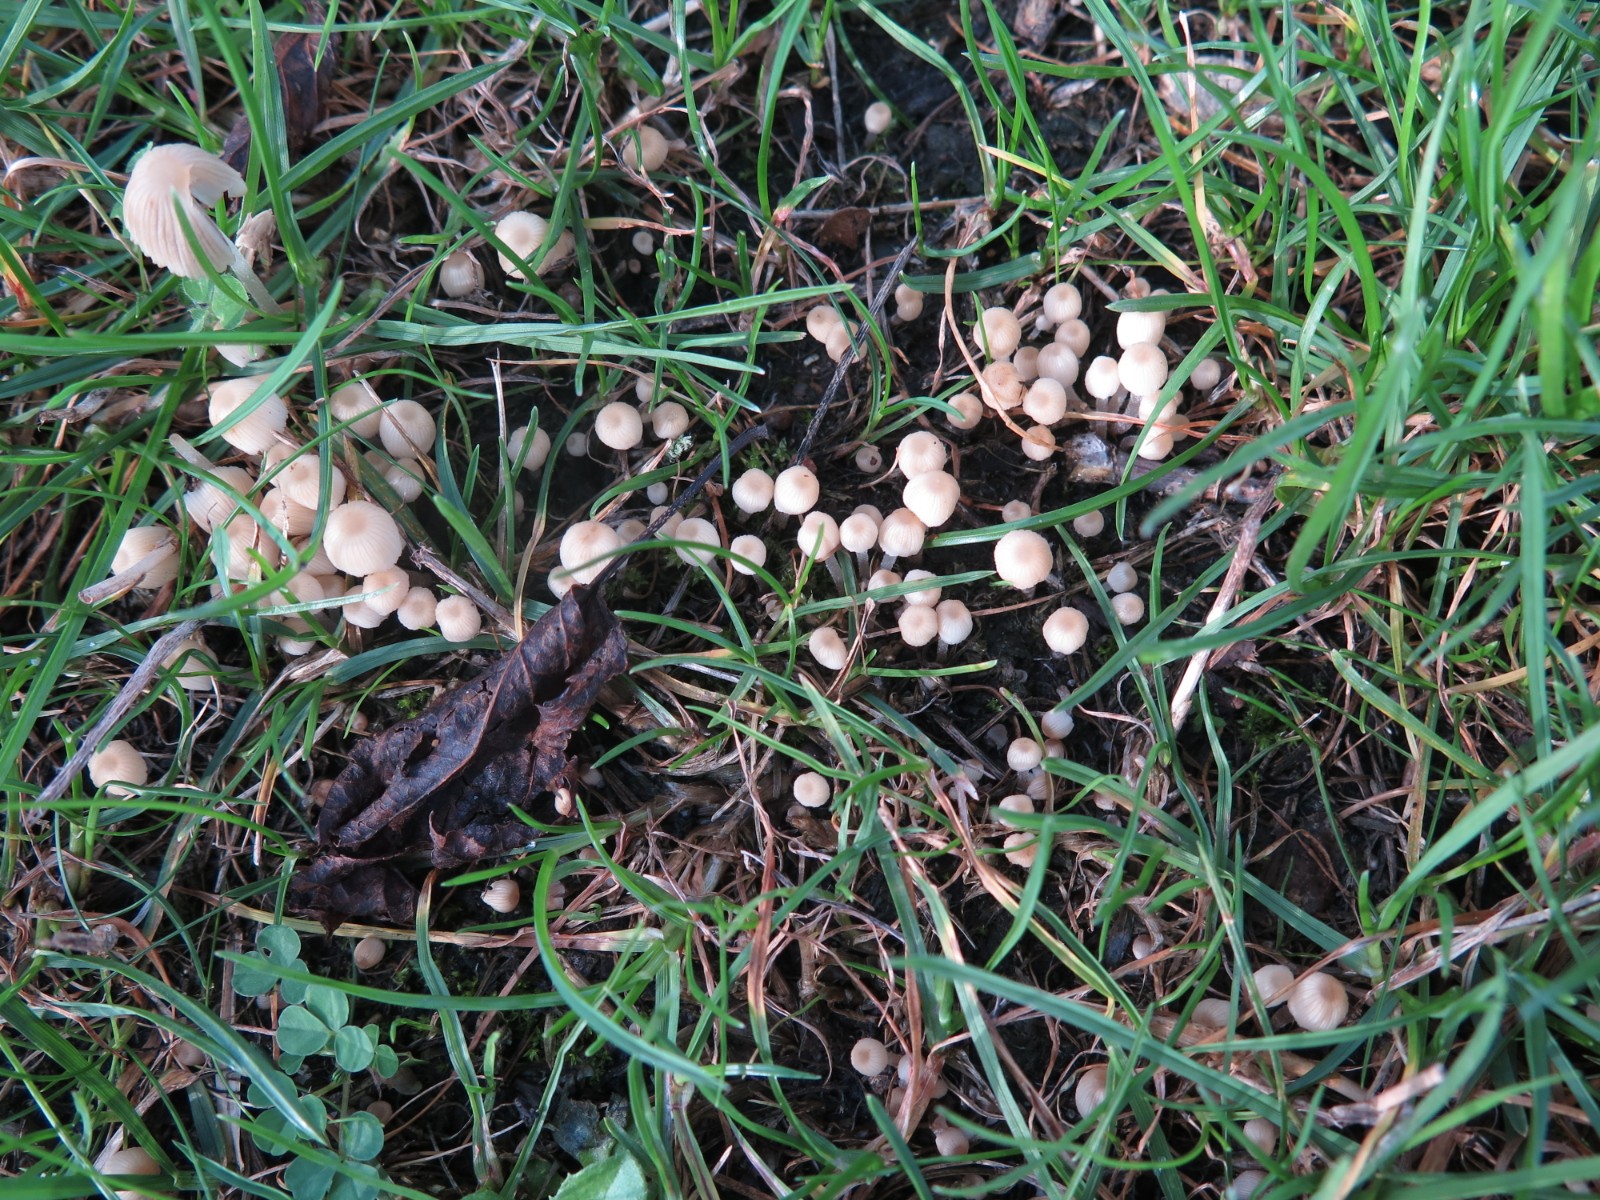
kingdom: Fungi
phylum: Basidiomycota
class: Agaricomycetes
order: Agaricales
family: Psathyrellaceae
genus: Coprinellus
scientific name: Coprinellus disseminatus
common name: bredsået blækhat
